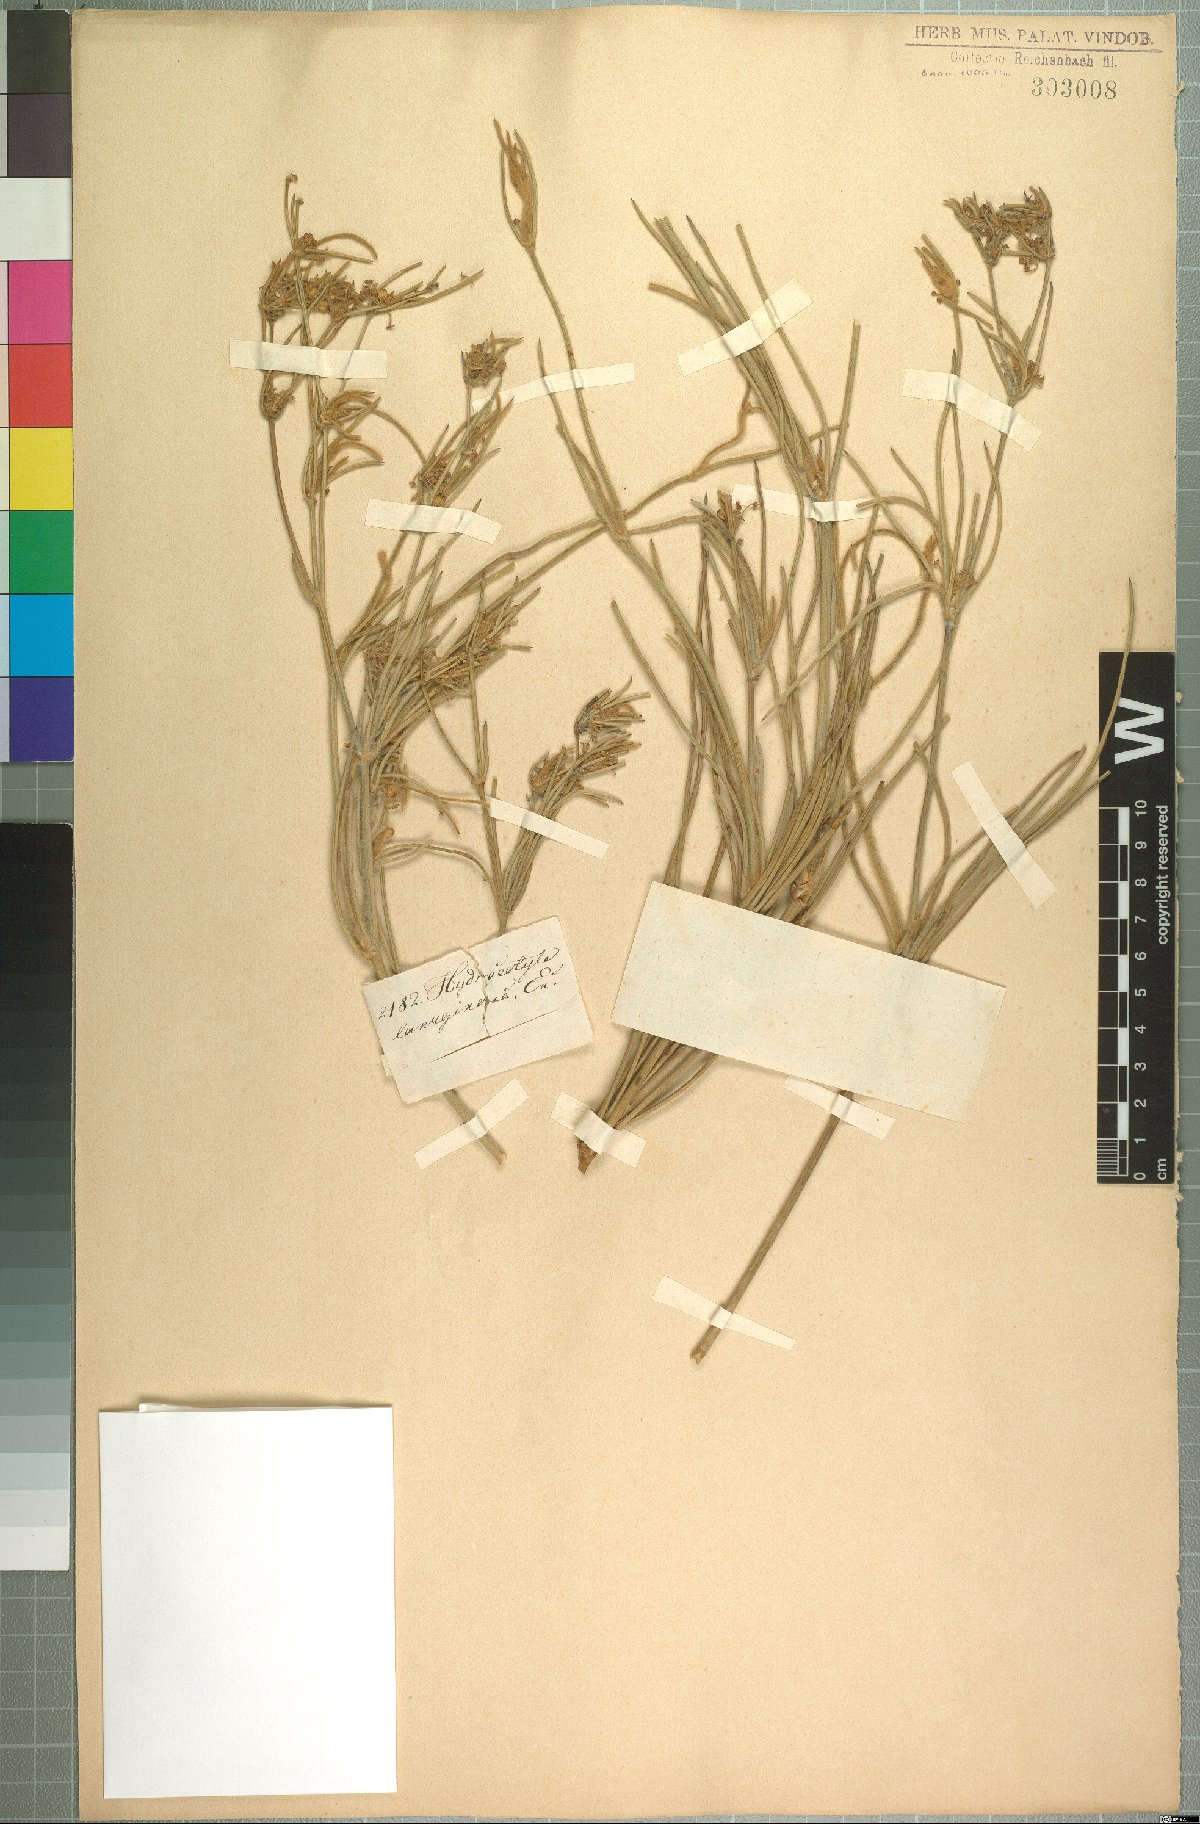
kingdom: Plantae
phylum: Tracheophyta
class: Magnoliopsida
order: Apiales
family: Apiaceae
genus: Centella
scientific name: Centella virgata
